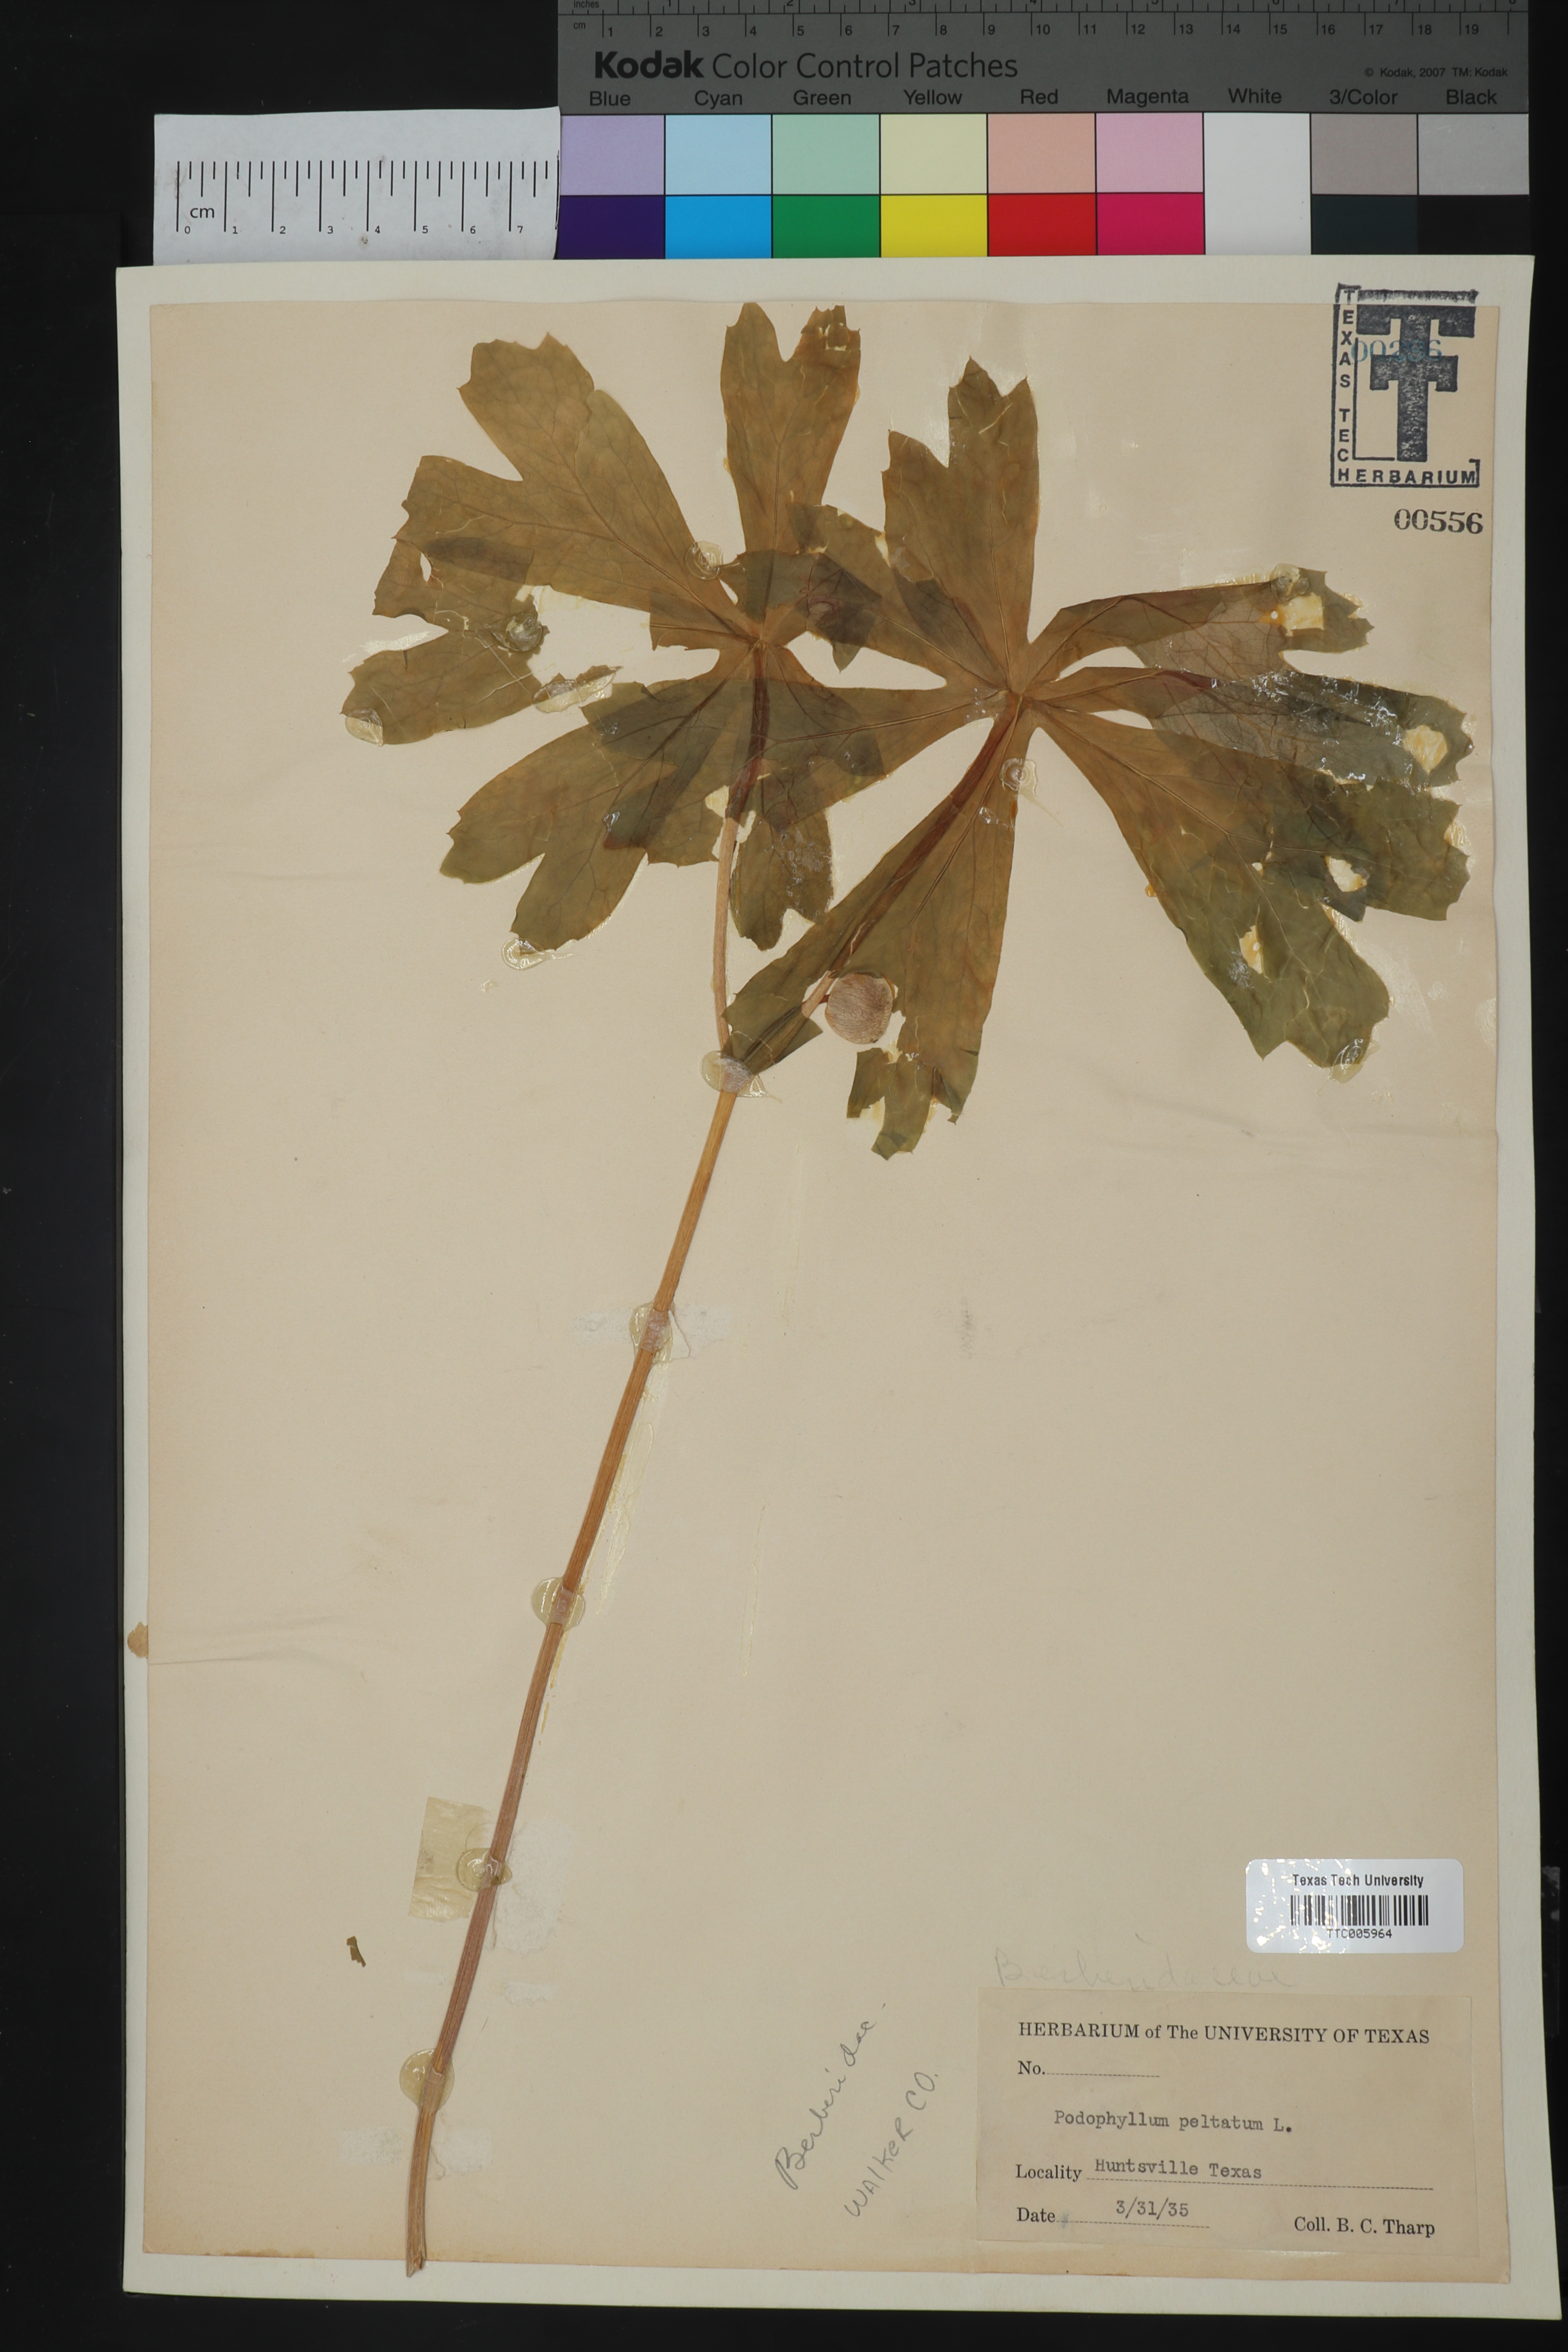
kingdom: Plantae
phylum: Tracheophyta
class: Magnoliopsida
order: Ranunculales
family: Berberidaceae
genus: Podophyllum
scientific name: Podophyllum peltatum
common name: Wild mandrake
